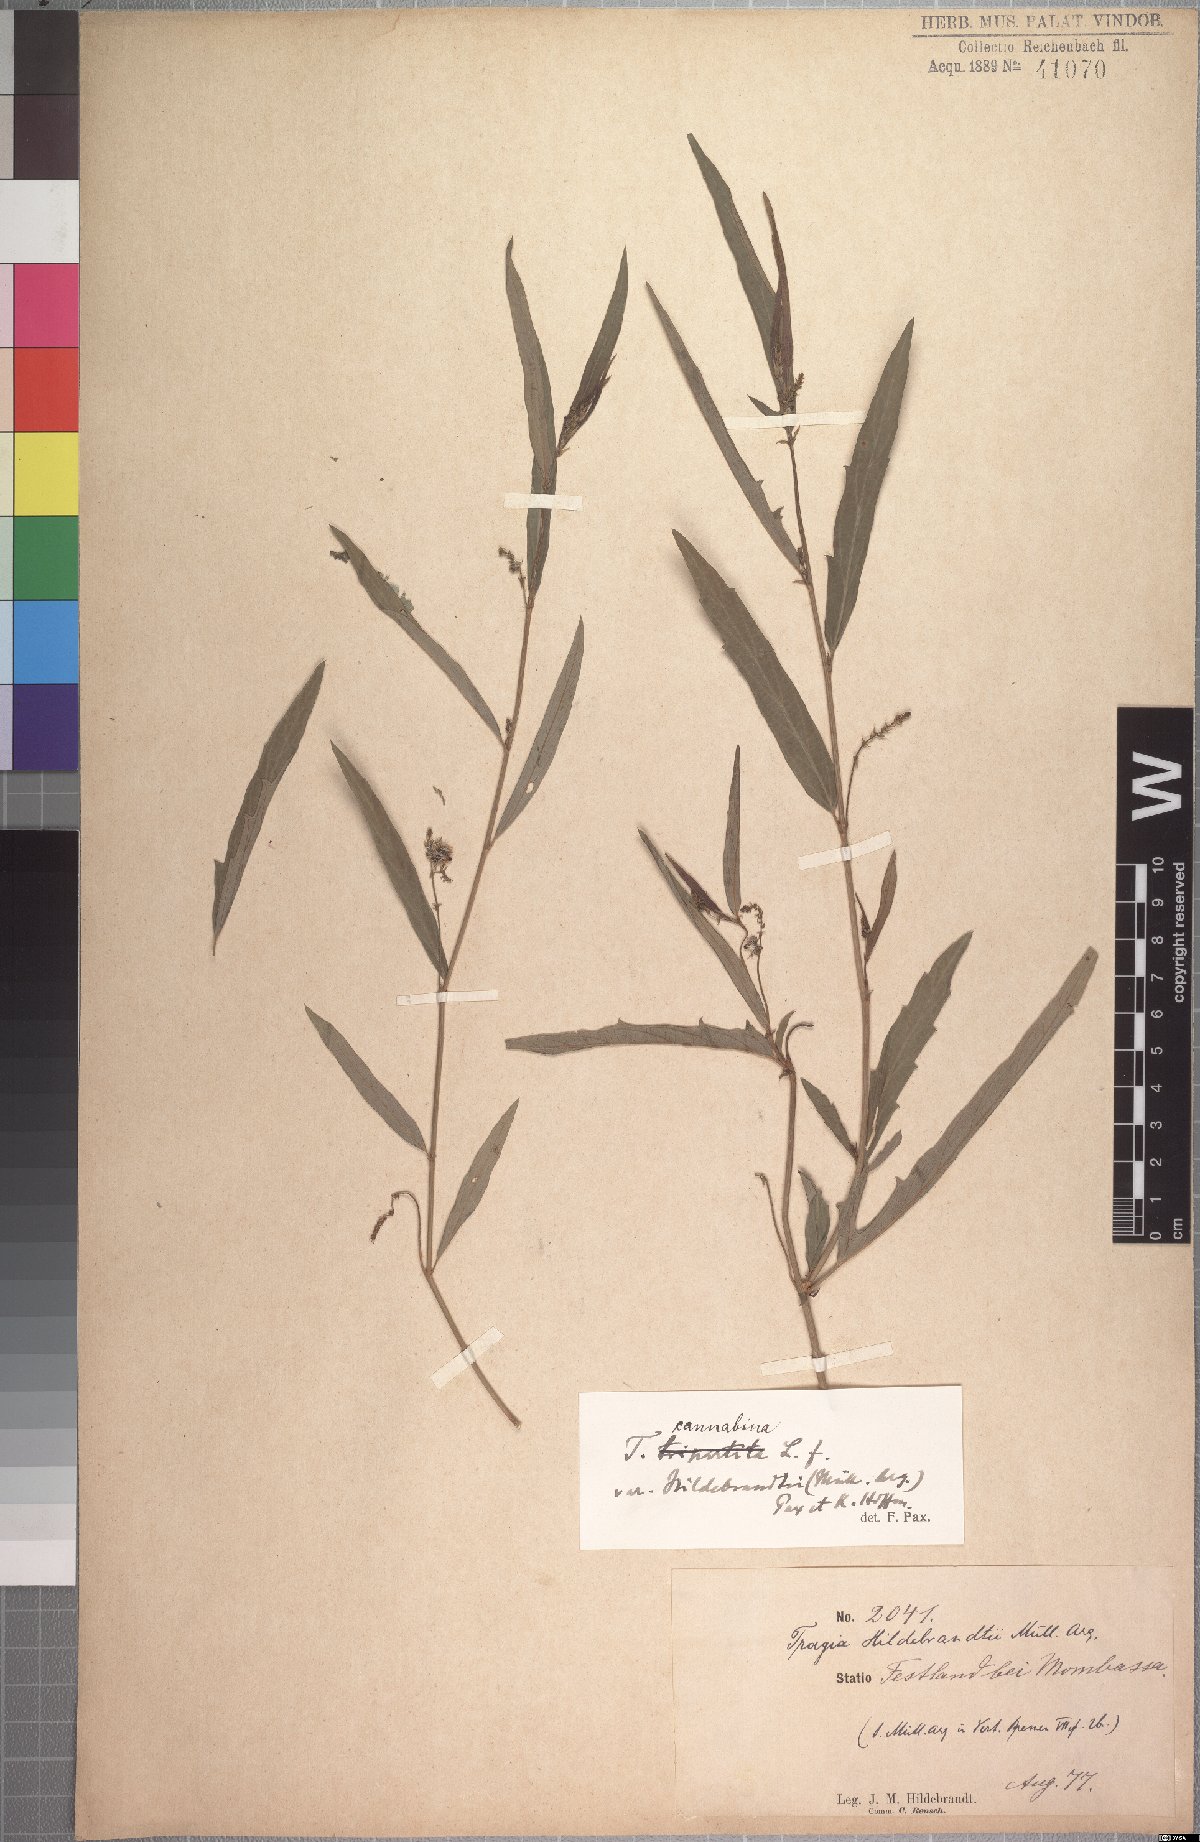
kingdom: Plantae
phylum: Tracheophyta
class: Magnoliopsida
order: Malpighiales
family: Euphorbiaceae
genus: Tragia
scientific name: Tragia hildebrandtii
